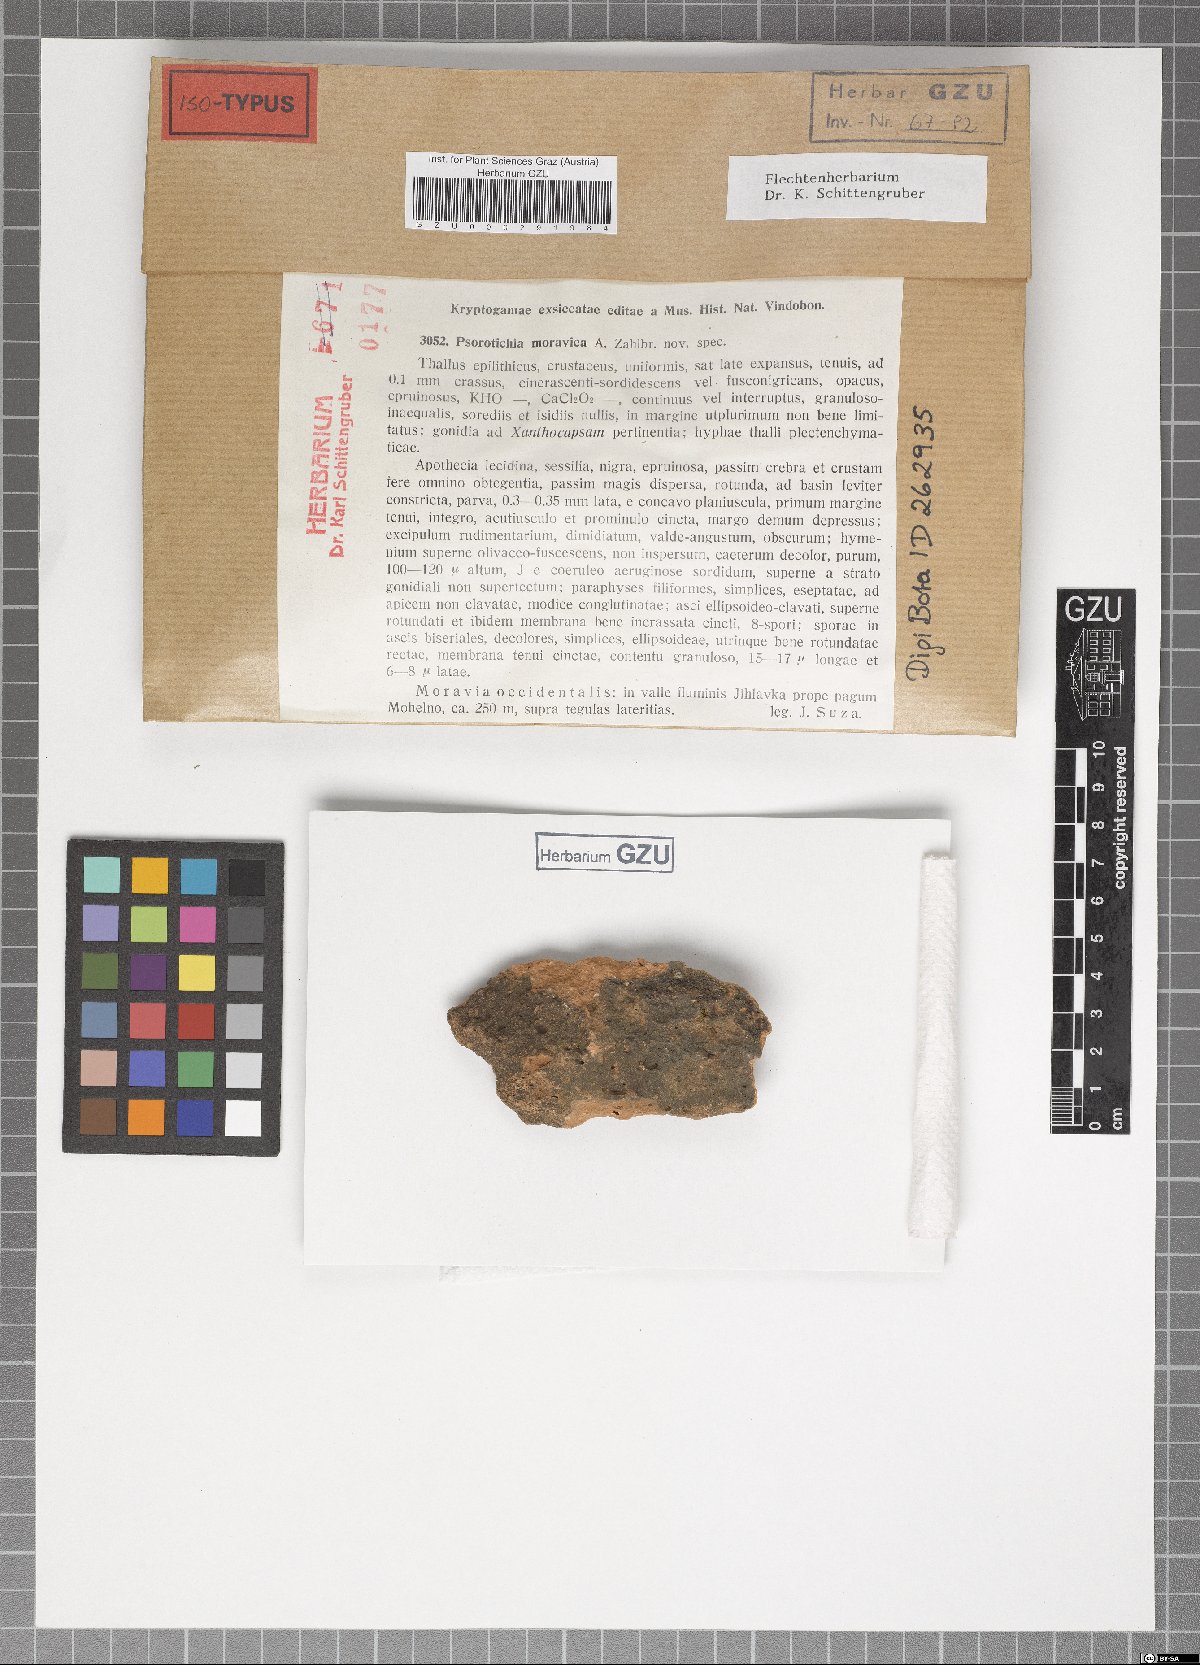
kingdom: Fungi
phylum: Ascomycota
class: Lichinomycetes
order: Lichinales
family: Lichinaceae
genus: Psorotichia
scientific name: Psorotichia moravica
